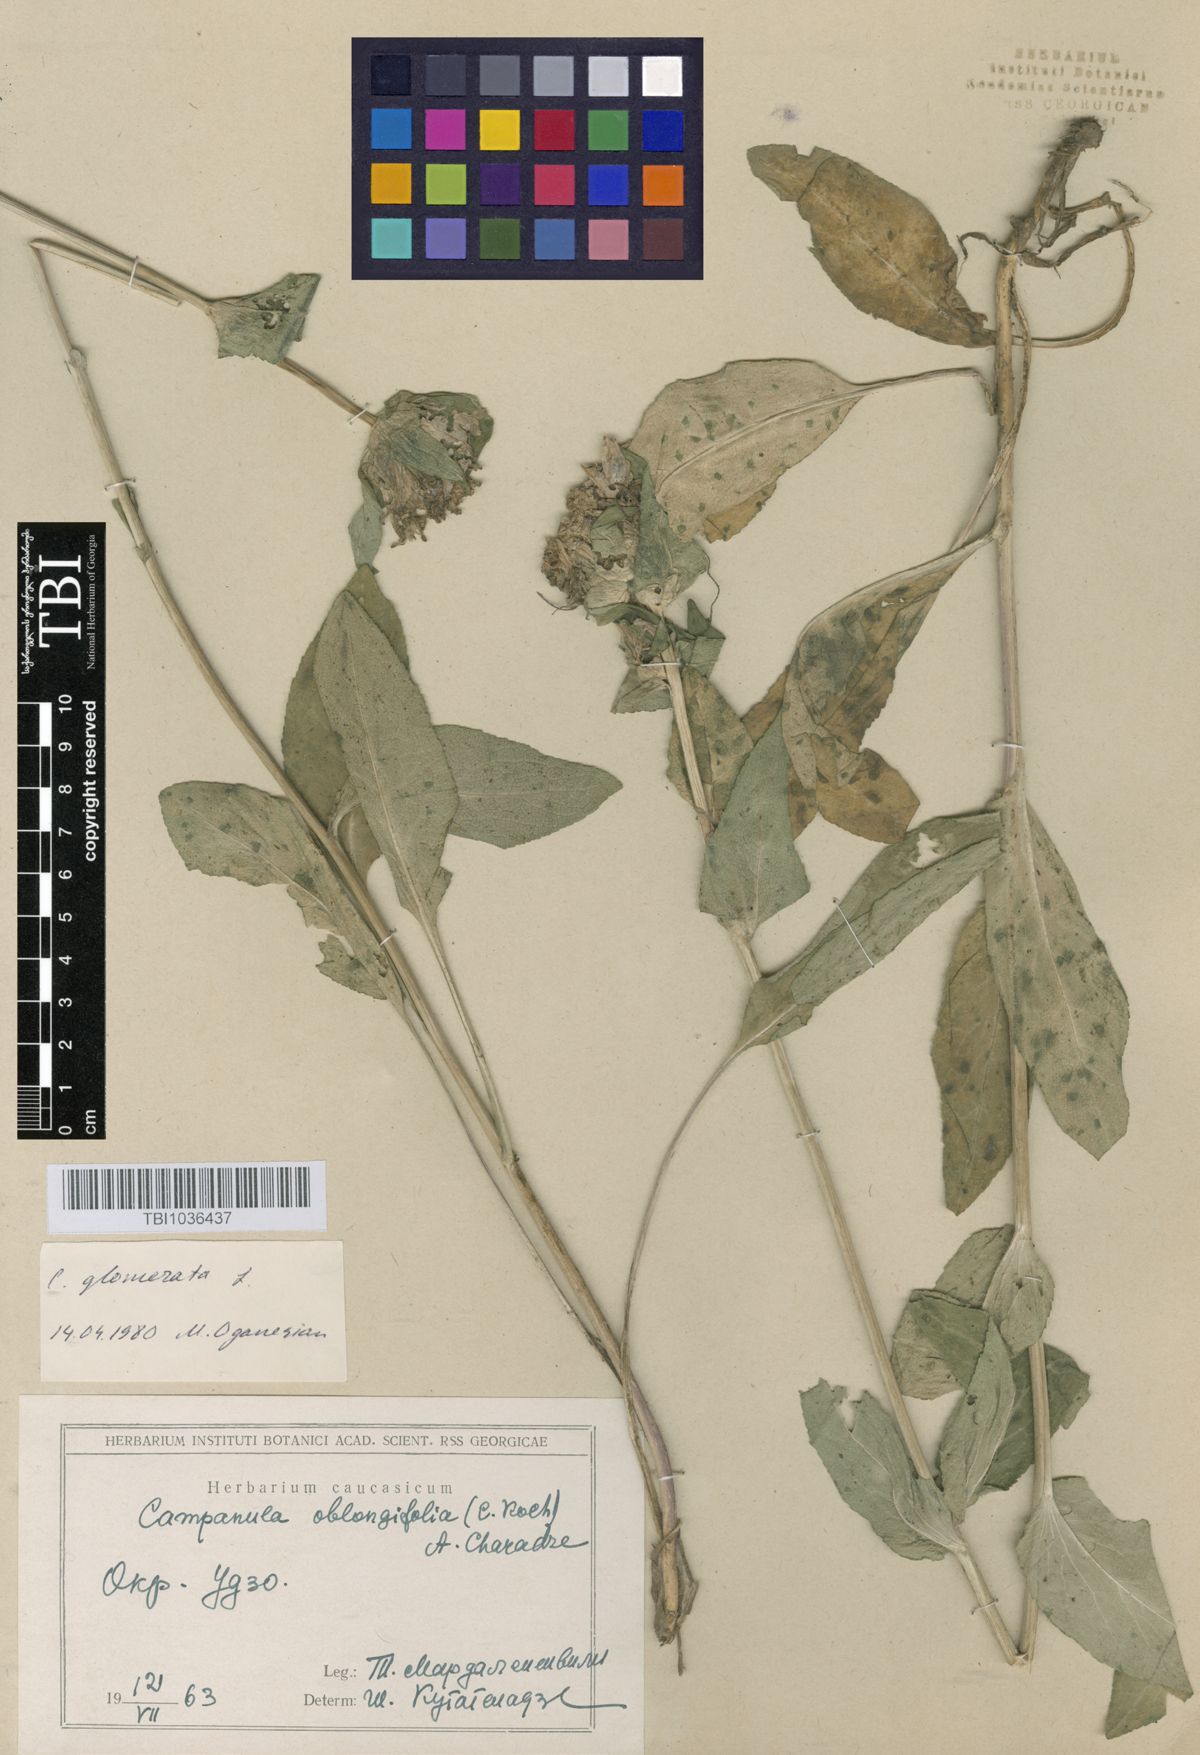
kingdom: Plantae
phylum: Tracheophyta
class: Magnoliopsida
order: Asterales
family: Campanulaceae
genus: Campanula
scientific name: Campanula glomerata
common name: Clustered bellflower
